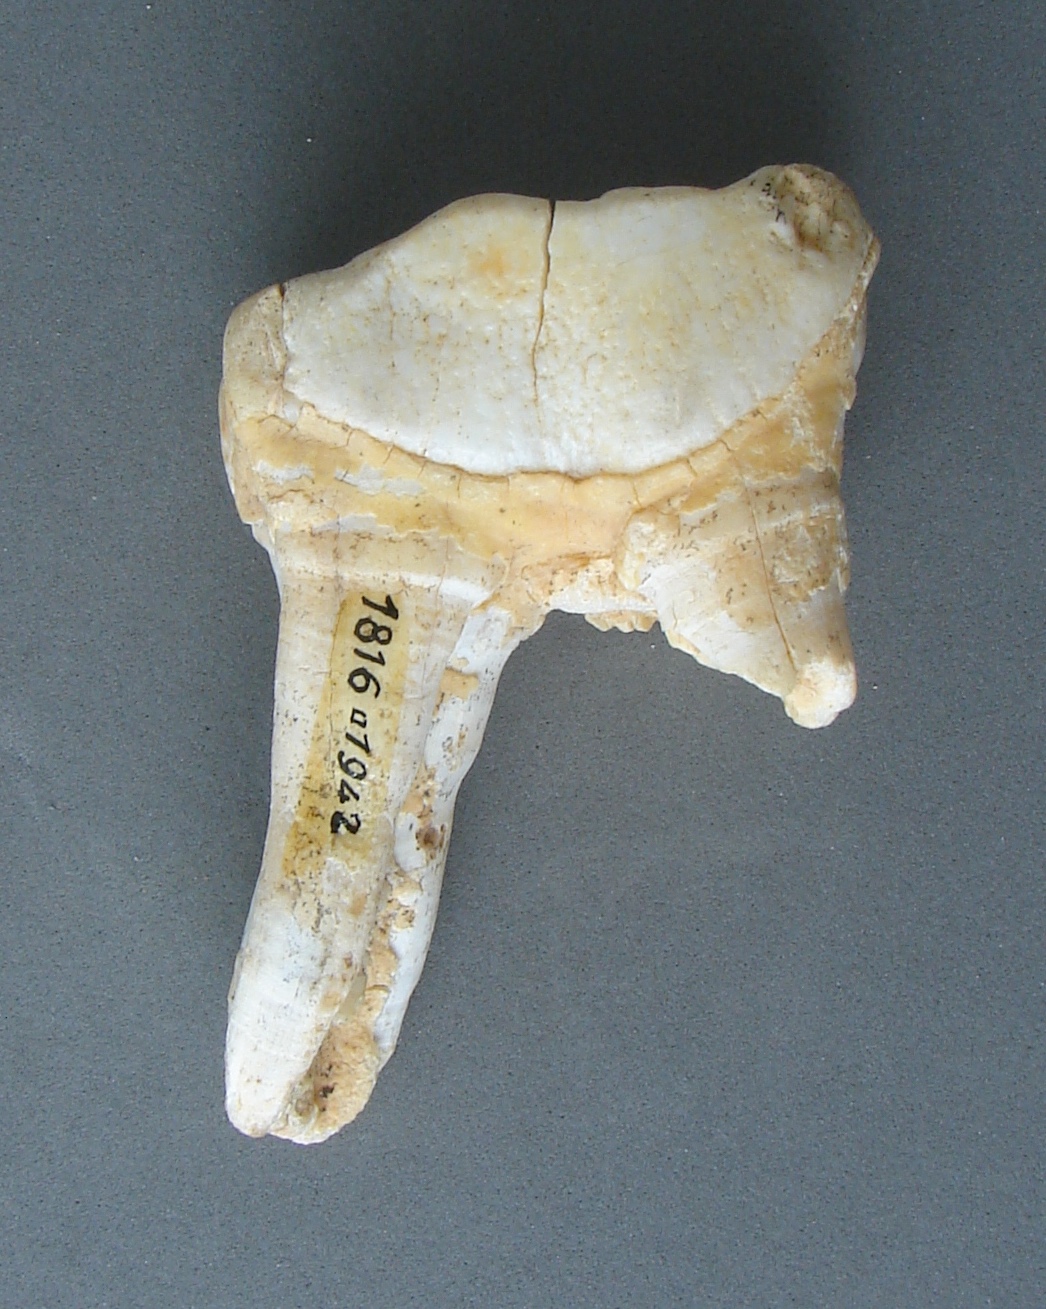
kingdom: Animalia
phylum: Chordata
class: Mammalia
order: Perissodactyla
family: Rhinocerotidae
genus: Rhinoceros
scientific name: Rhinoceros
